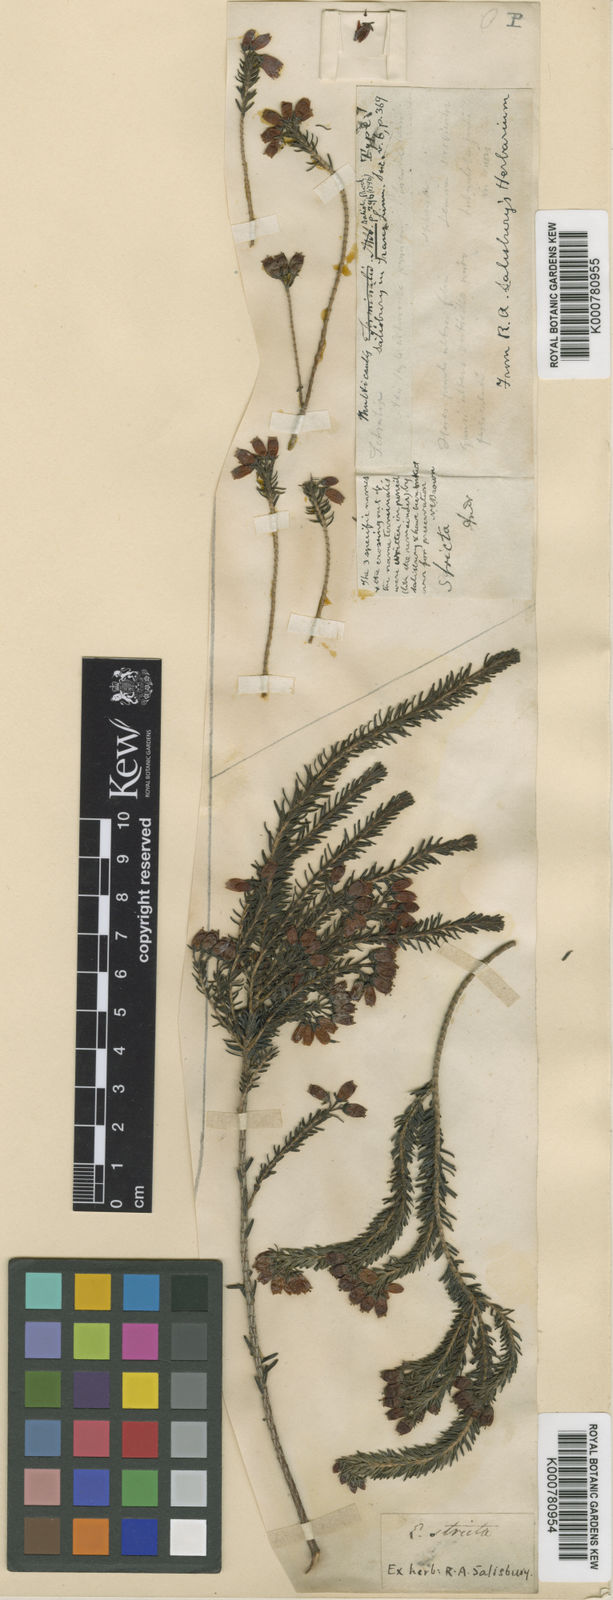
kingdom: Plantae
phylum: Tracheophyta
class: Magnoliopsida
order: Ericales
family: Ericaceae
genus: Erica
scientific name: Erica terminalis
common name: Corsican heath
